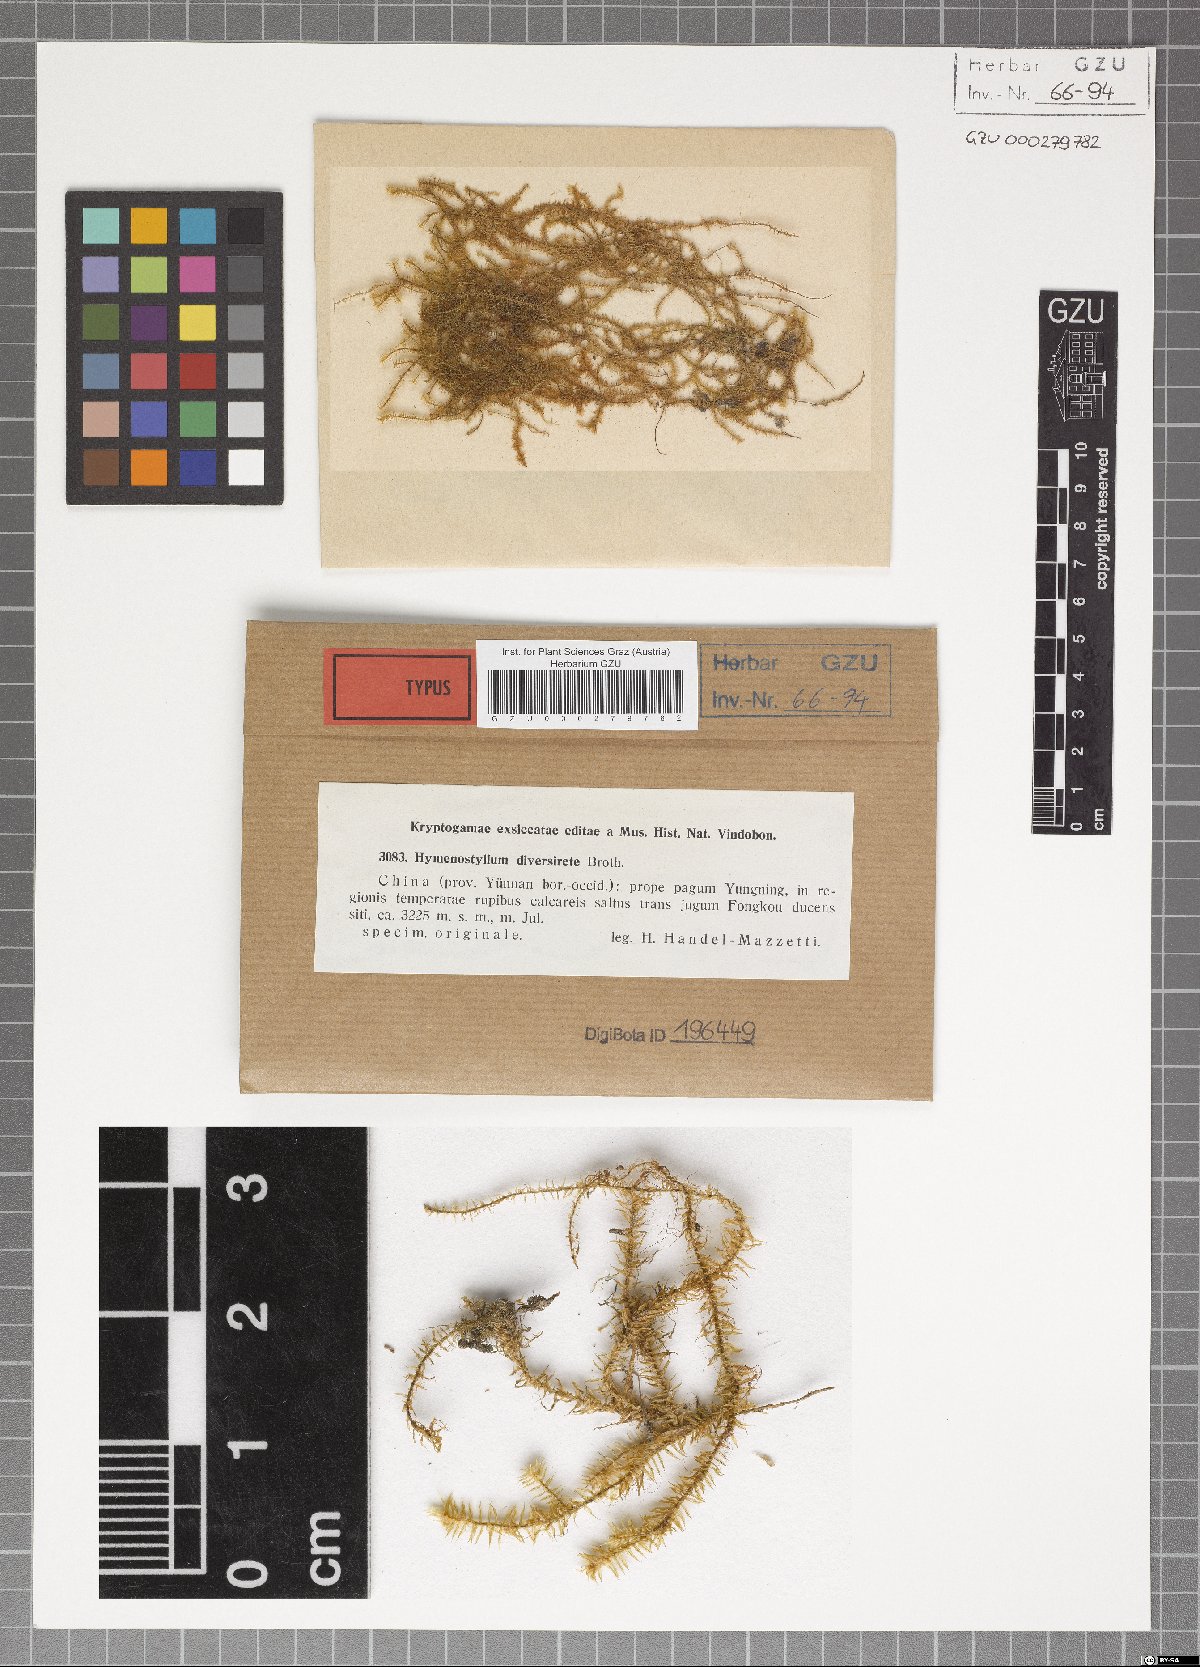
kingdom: Plantae
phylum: Bryophyta
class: Bryopsida
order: Pottiales
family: Pottiaceae
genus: Reimersia
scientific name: Reimersia diversiretis
